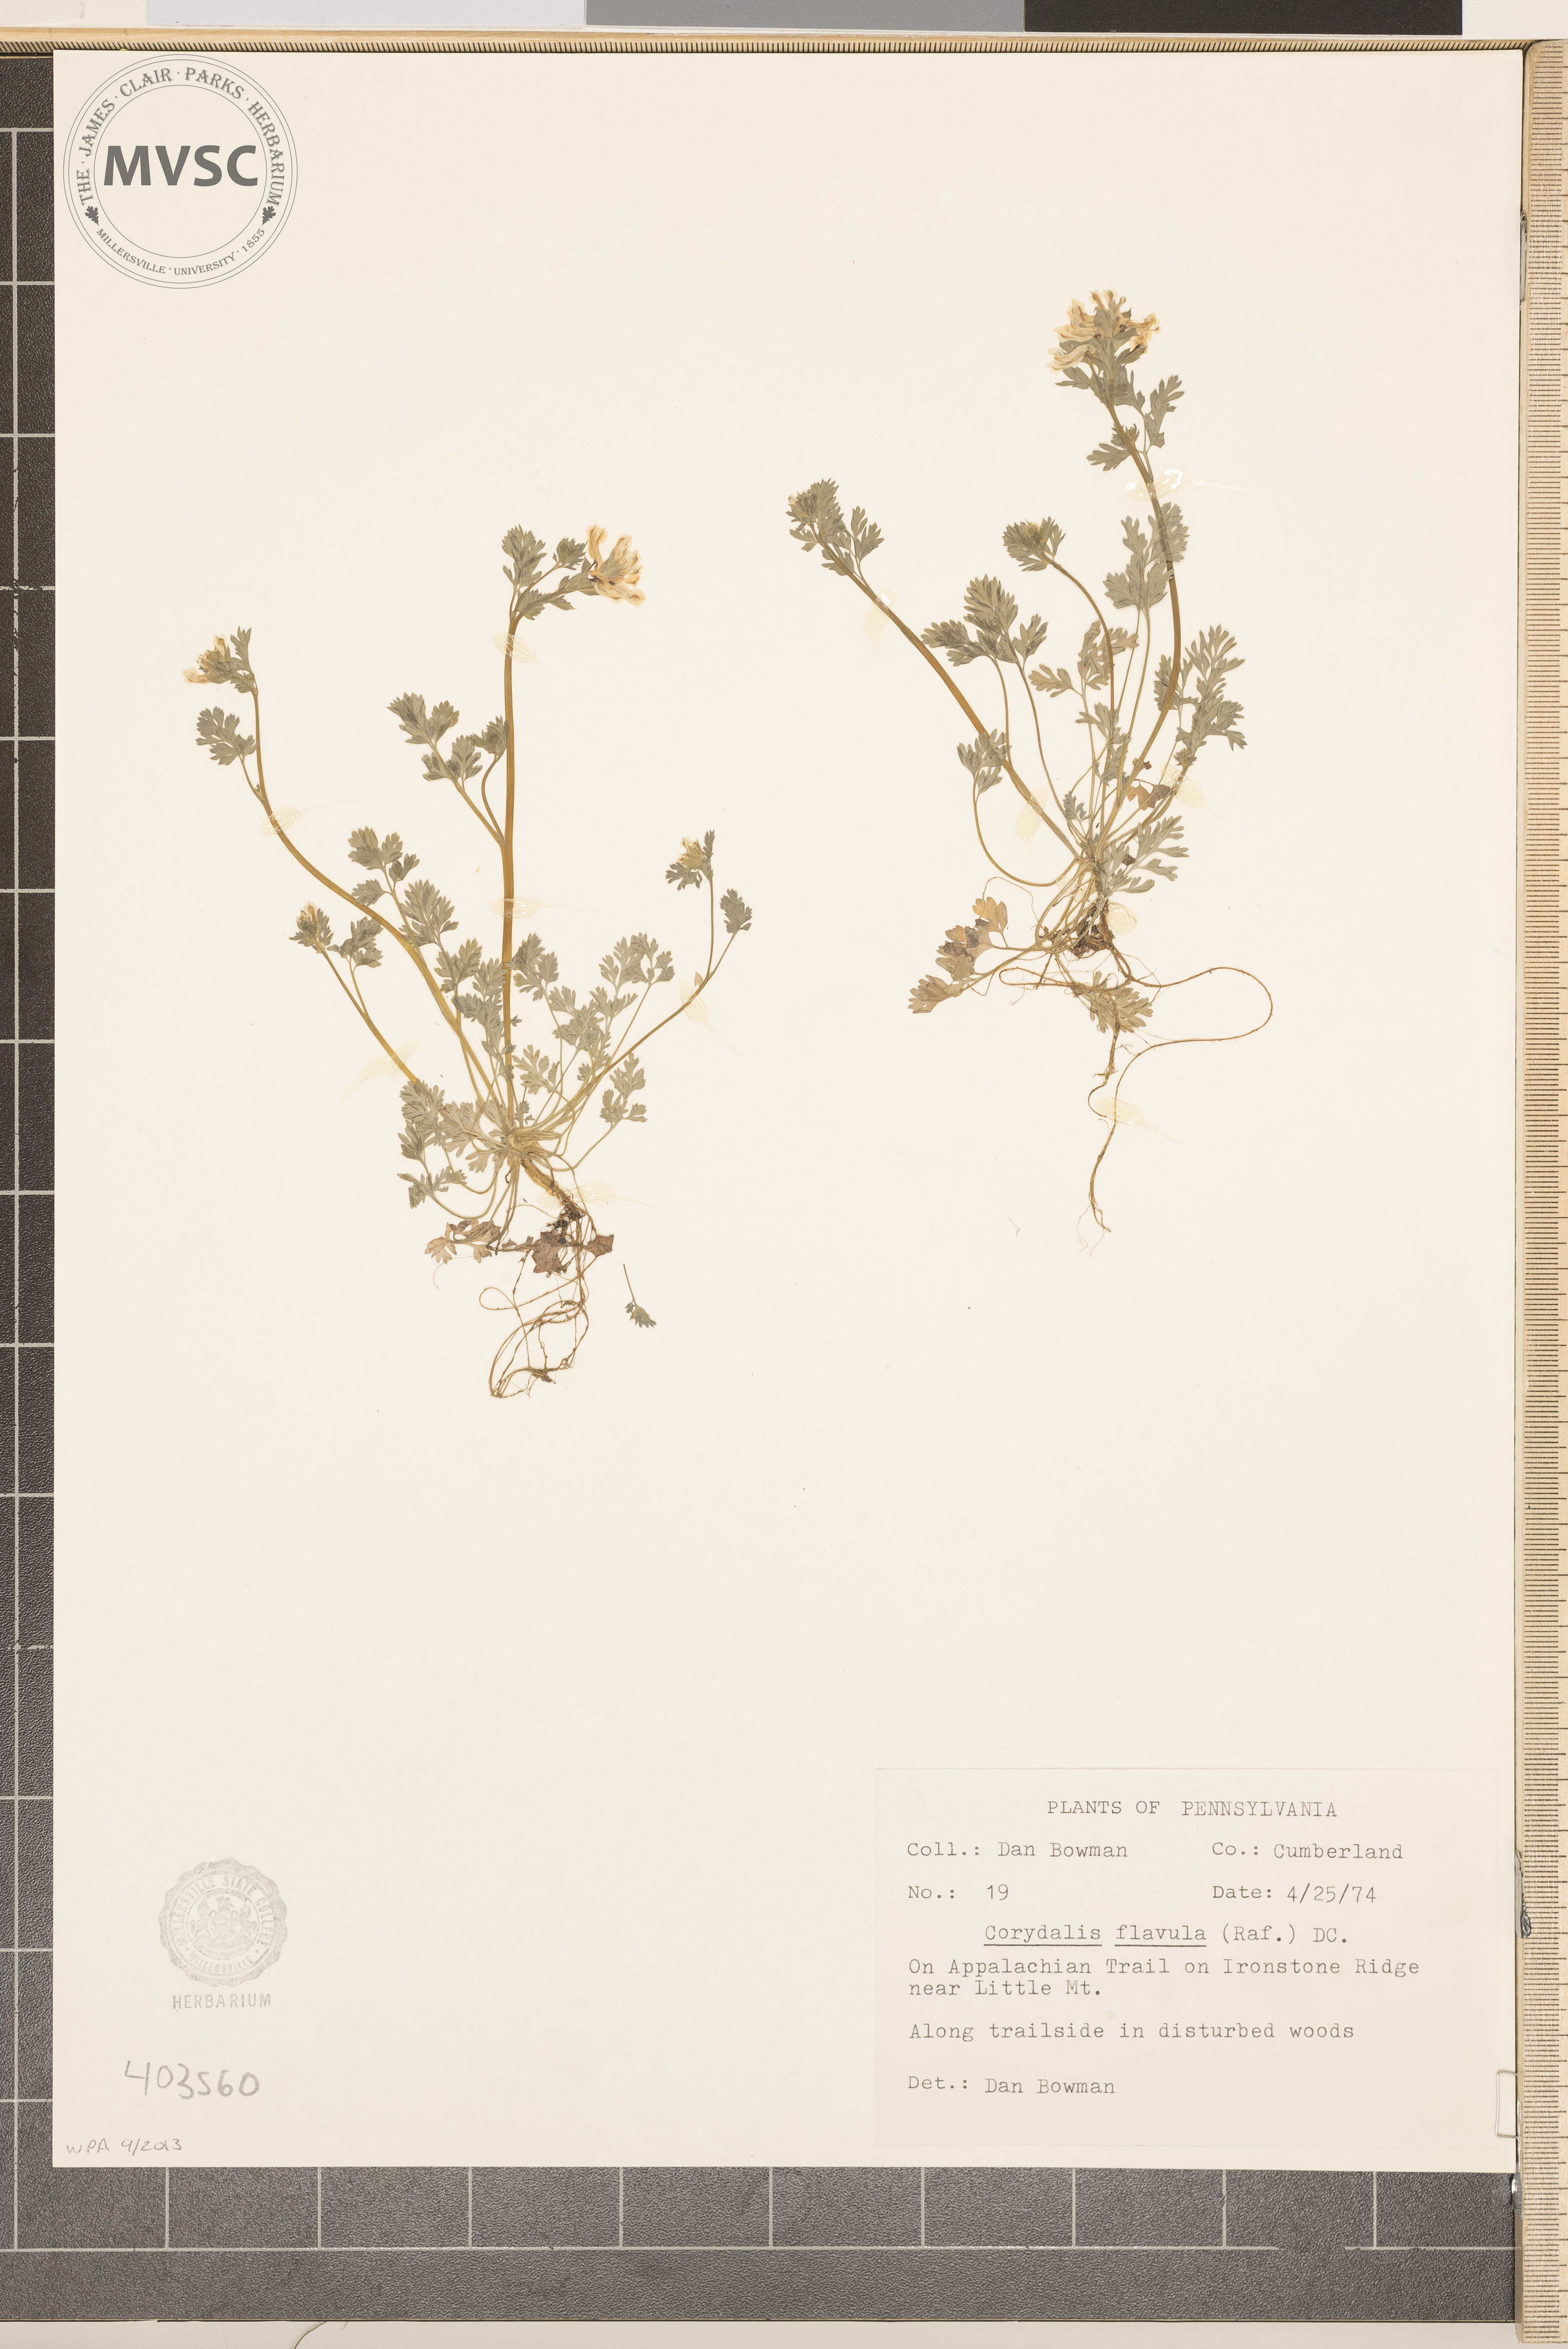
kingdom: Plantae
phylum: Tracheophyta
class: Magnoliopsida
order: Ranunculales
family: Papaveraceae
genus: Corydalis
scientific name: Corydalis flavula
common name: Yellow corydalis
